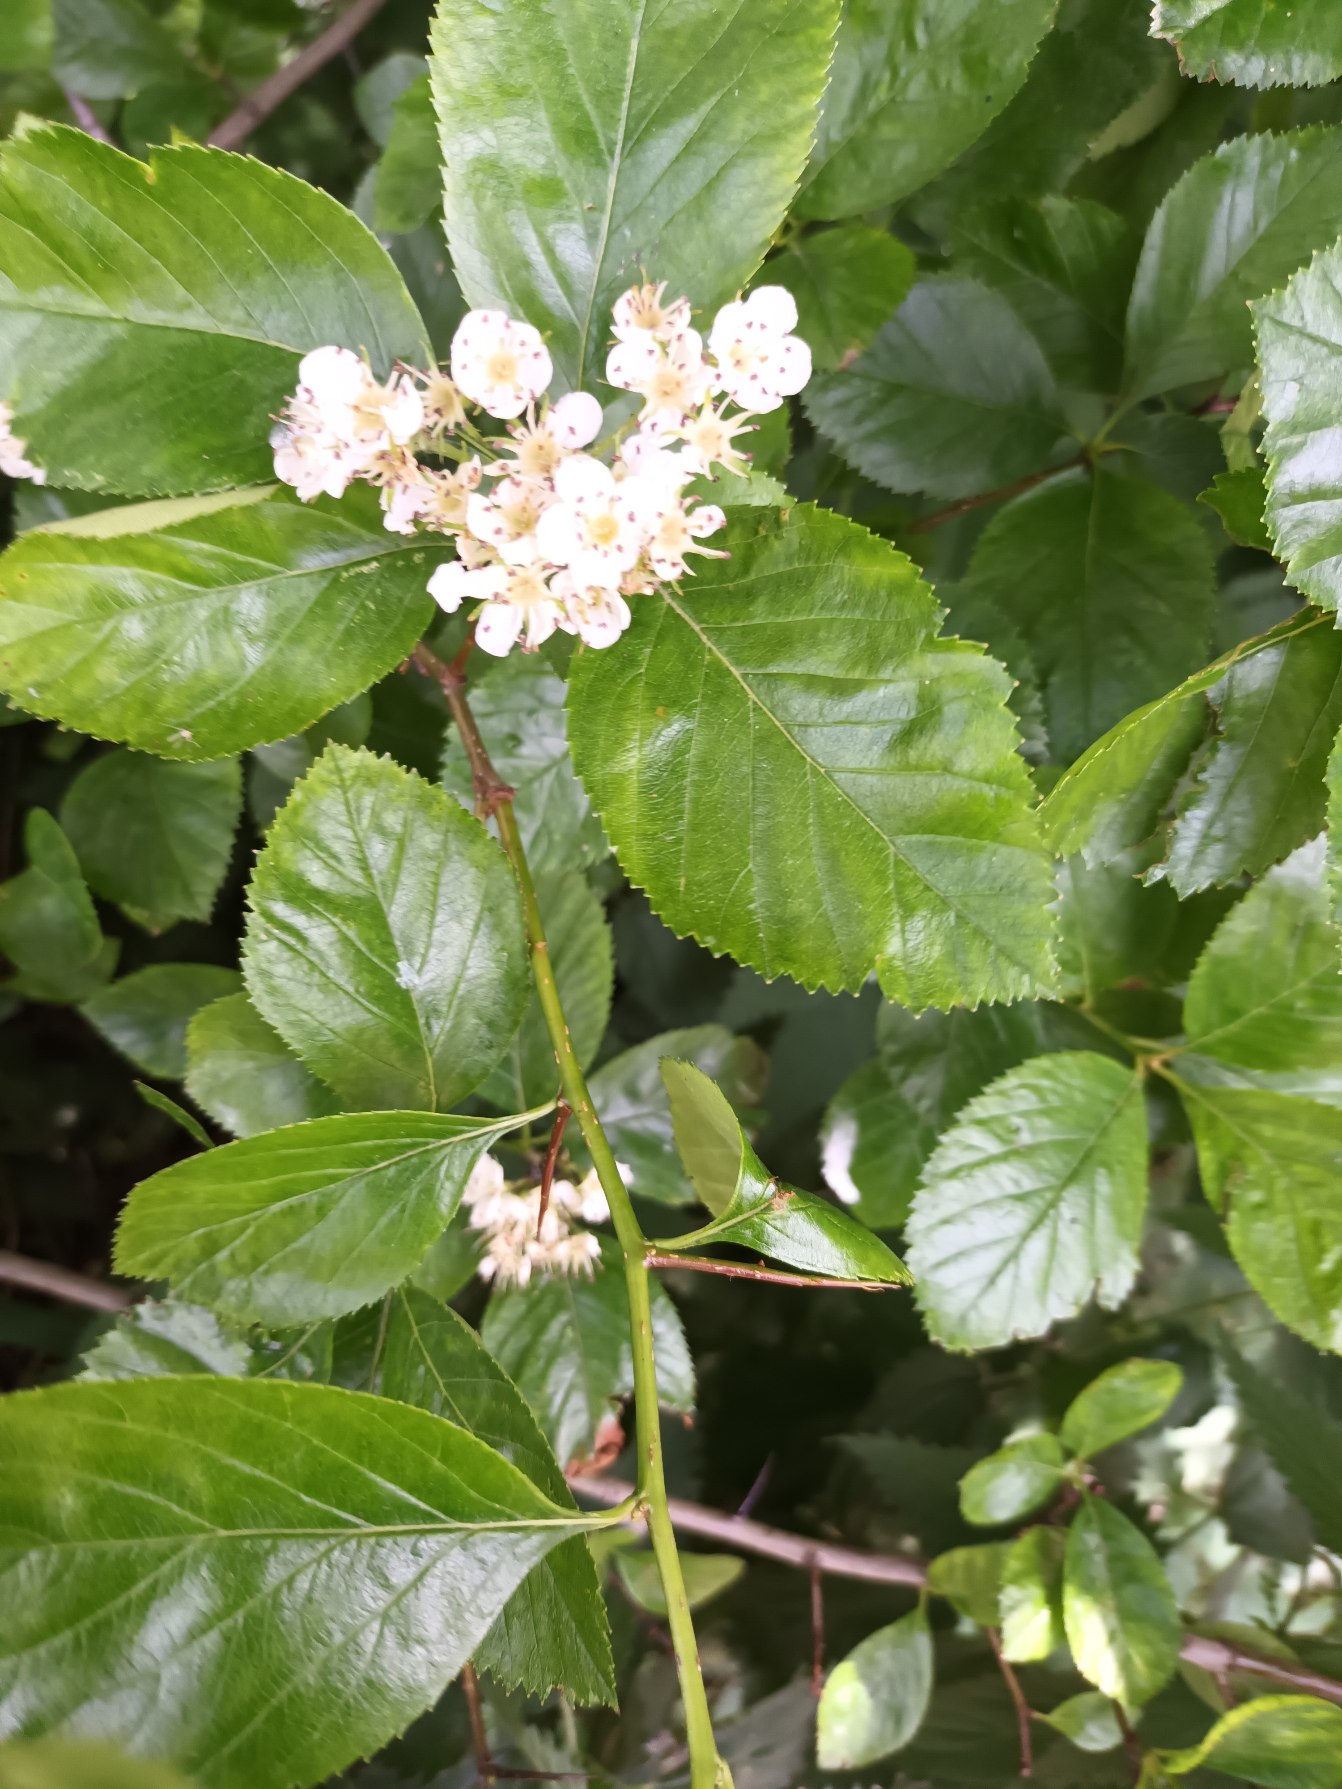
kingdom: Plantae
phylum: Tracheophyta
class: Magnoliopsida
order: Rosales
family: Rosaceae
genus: Crataegus
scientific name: Crataegus persimilis
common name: Syltornet tjørn
